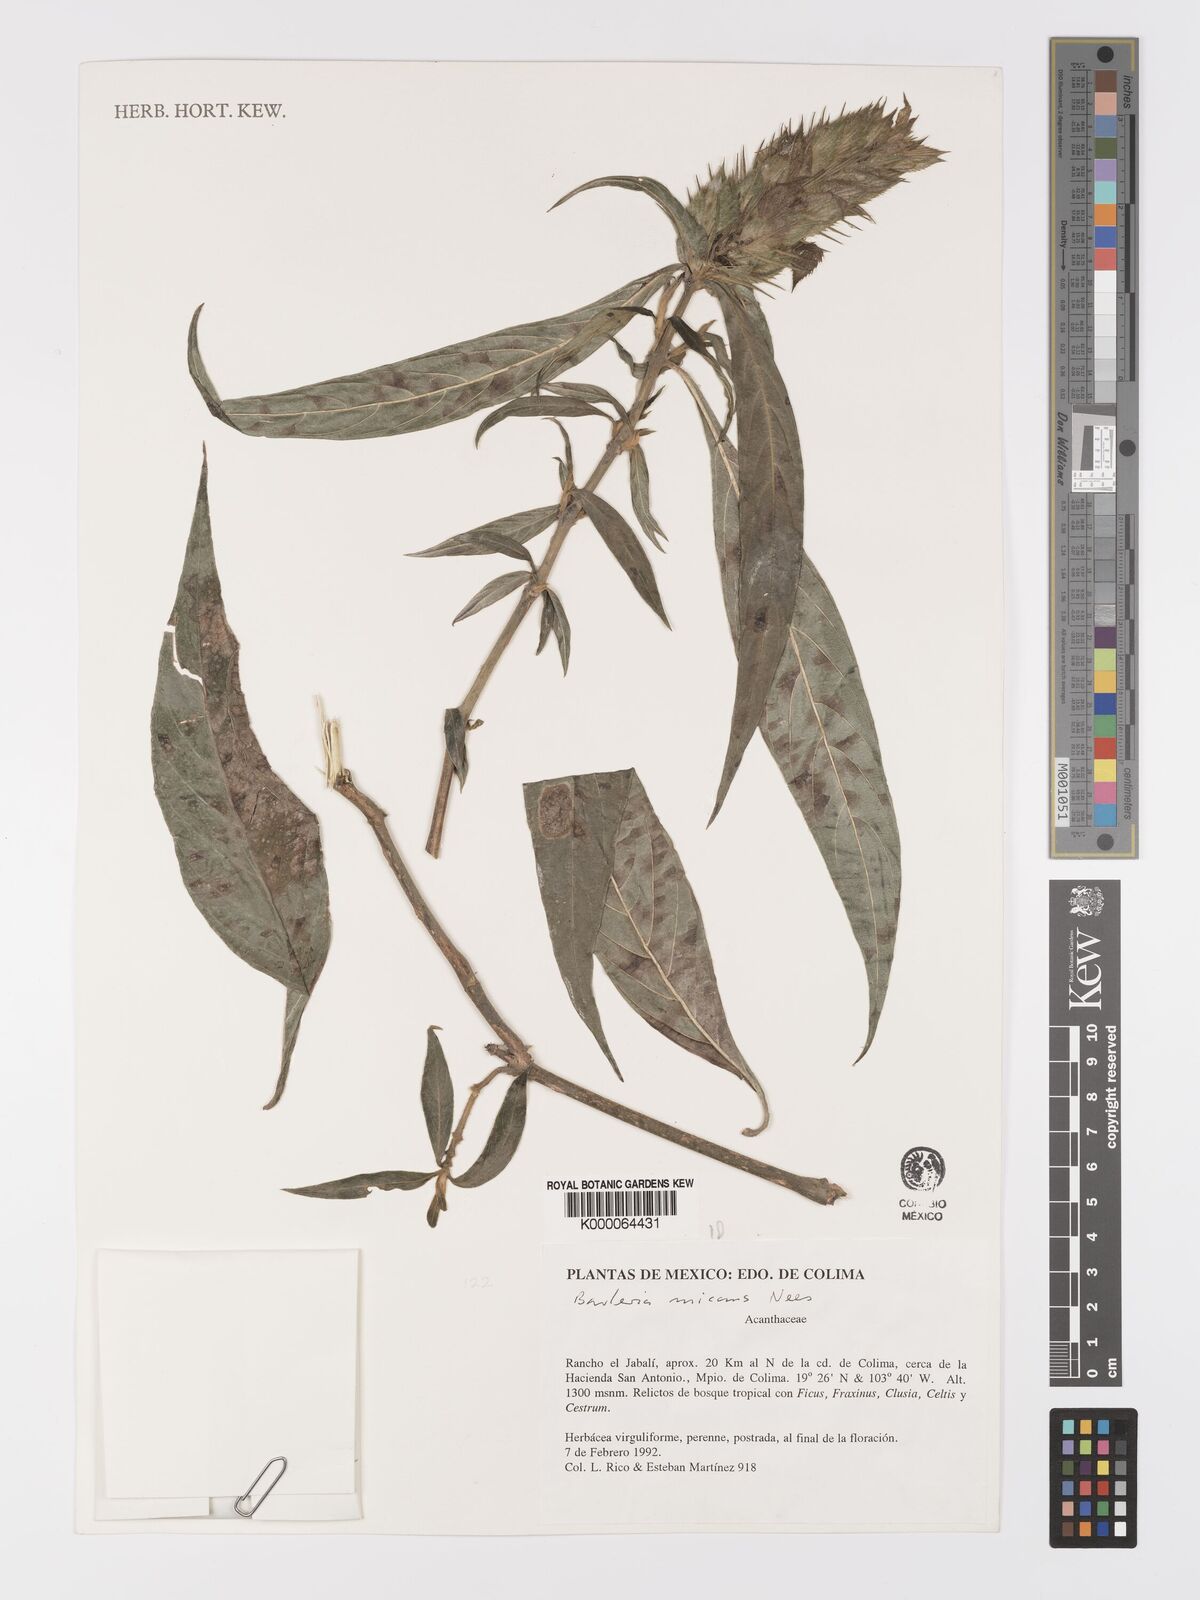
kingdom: Plantae
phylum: Tracheophyta
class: Magnoliopsida
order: Lamiales
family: Acanthaceae
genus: Barleria
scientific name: Barleria oenotheroides
